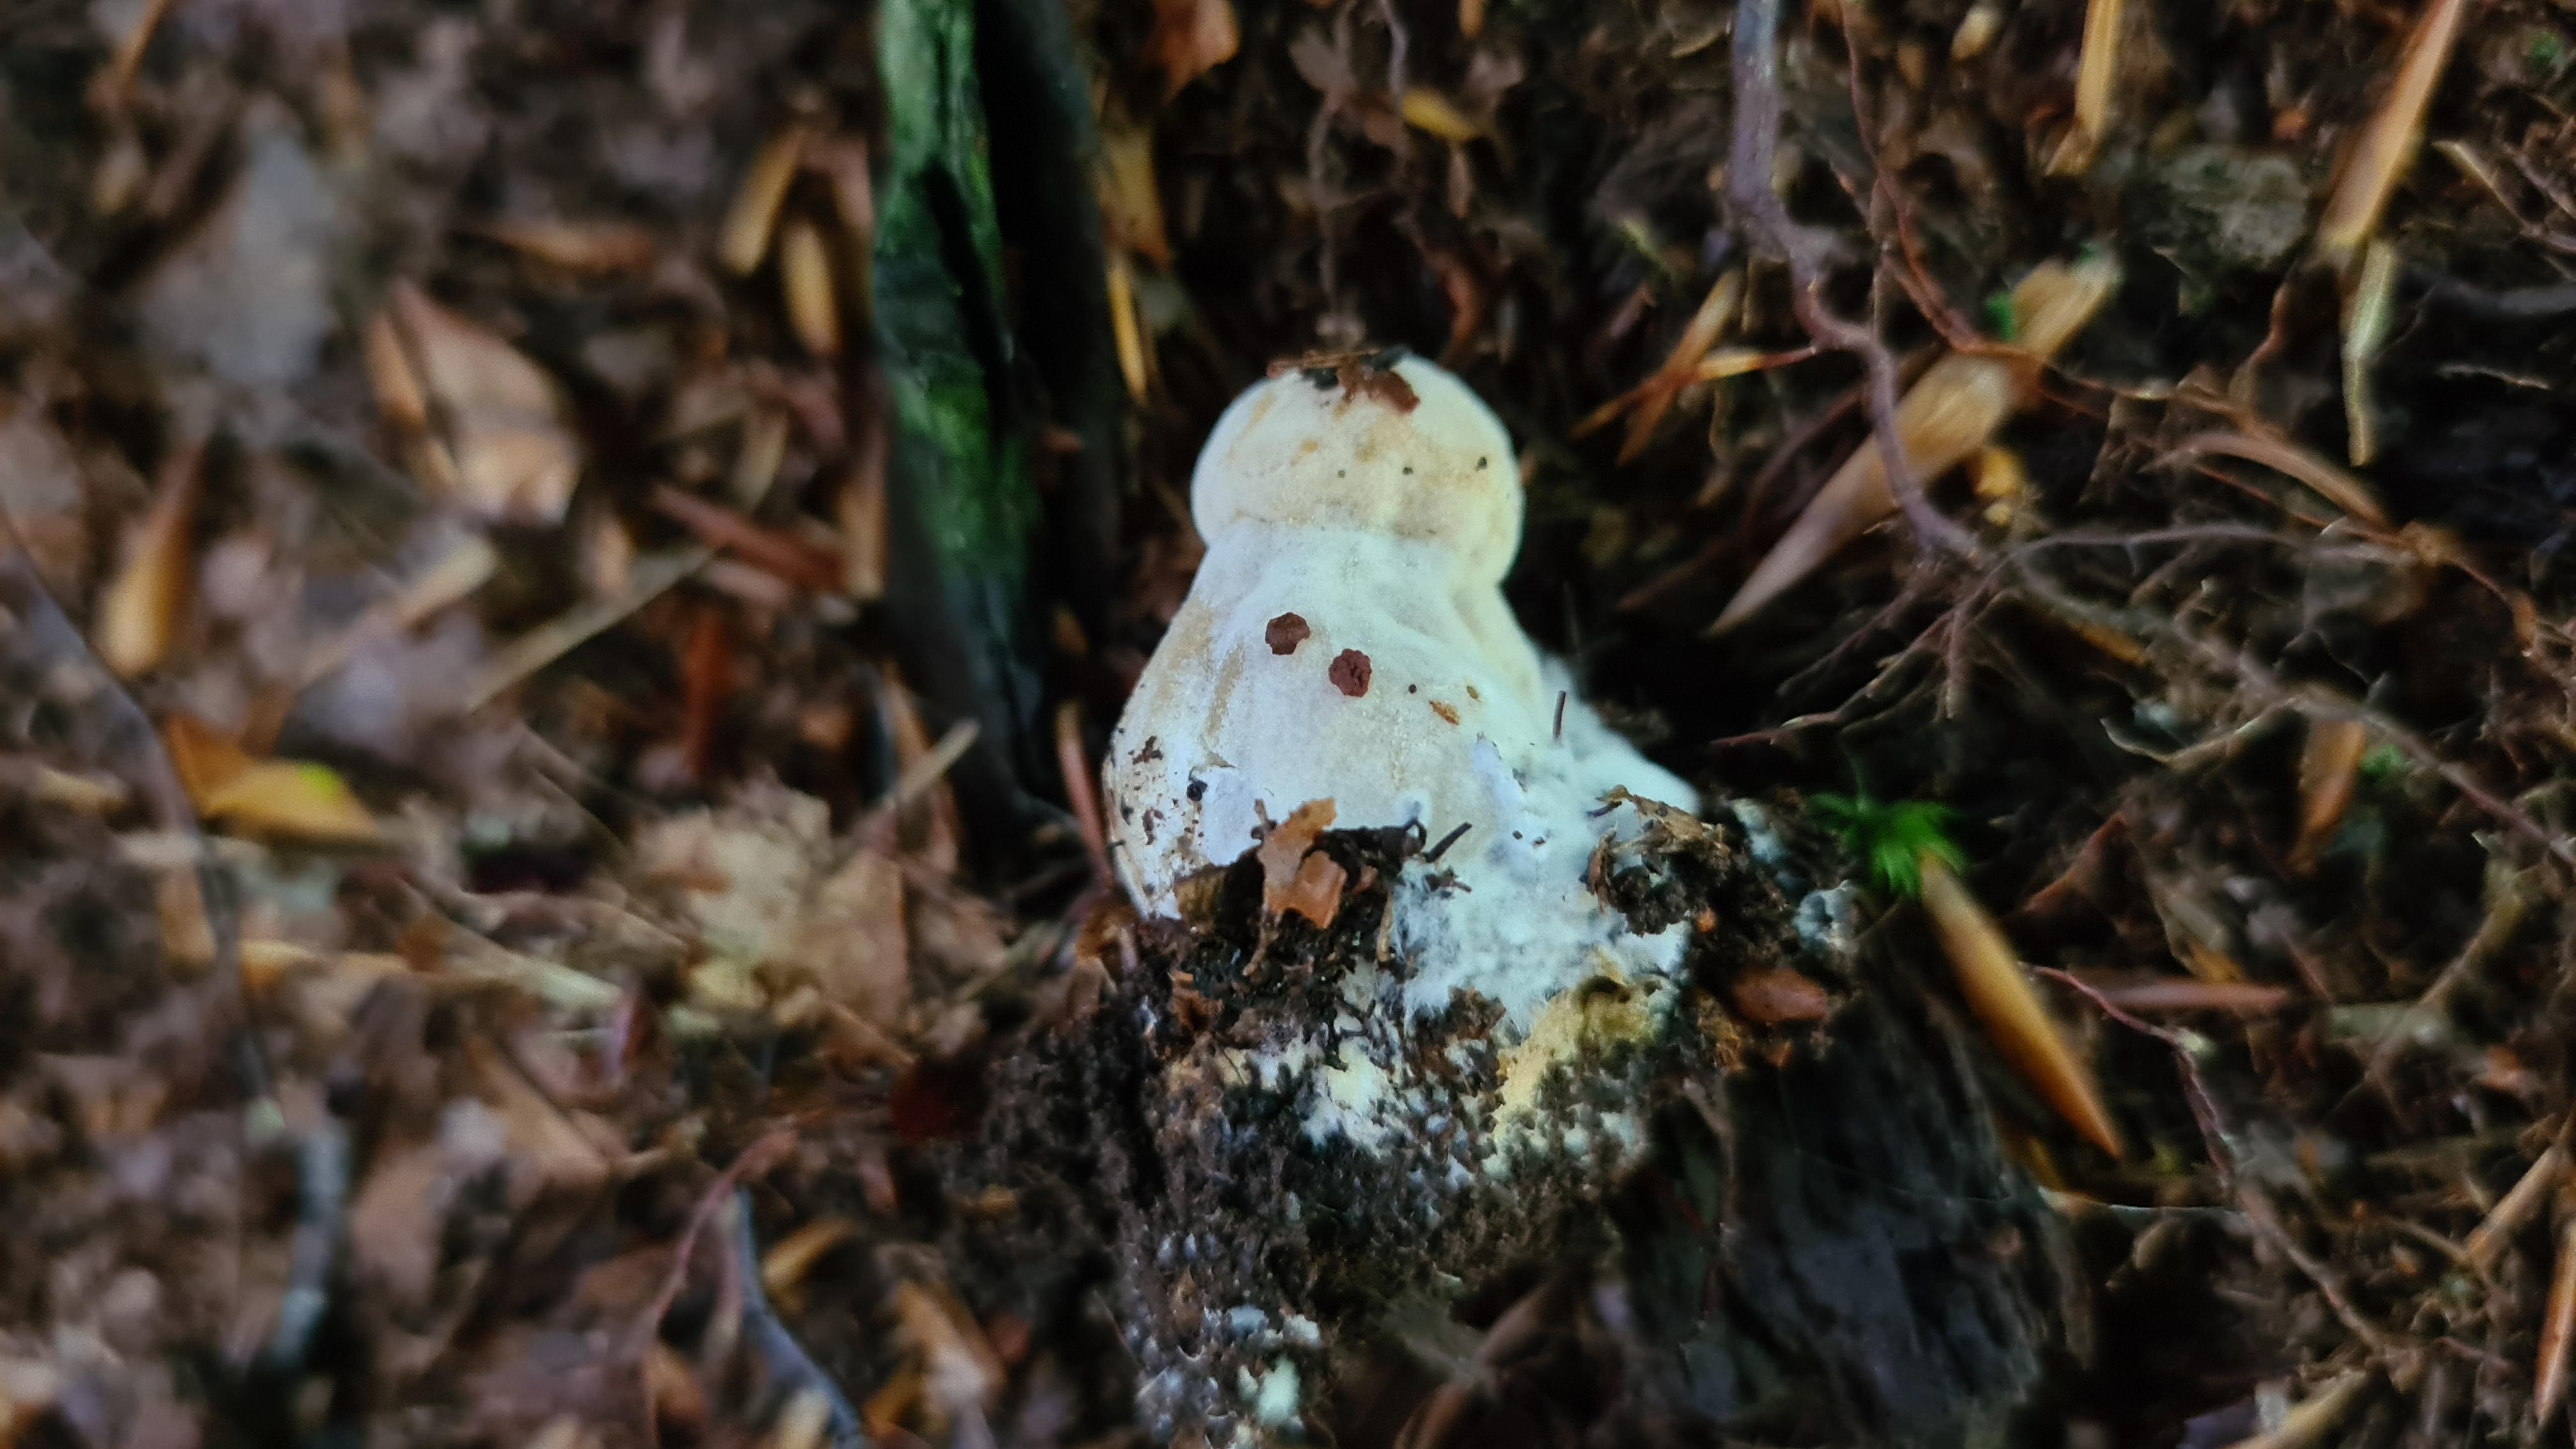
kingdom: Fungi
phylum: Ascomycota
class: Sordariomycetes
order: Hypocreales
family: Hypocreaceae
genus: Hypomyces
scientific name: Hypomyces chrysospermus
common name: gulskimmel-snylteskorpe
